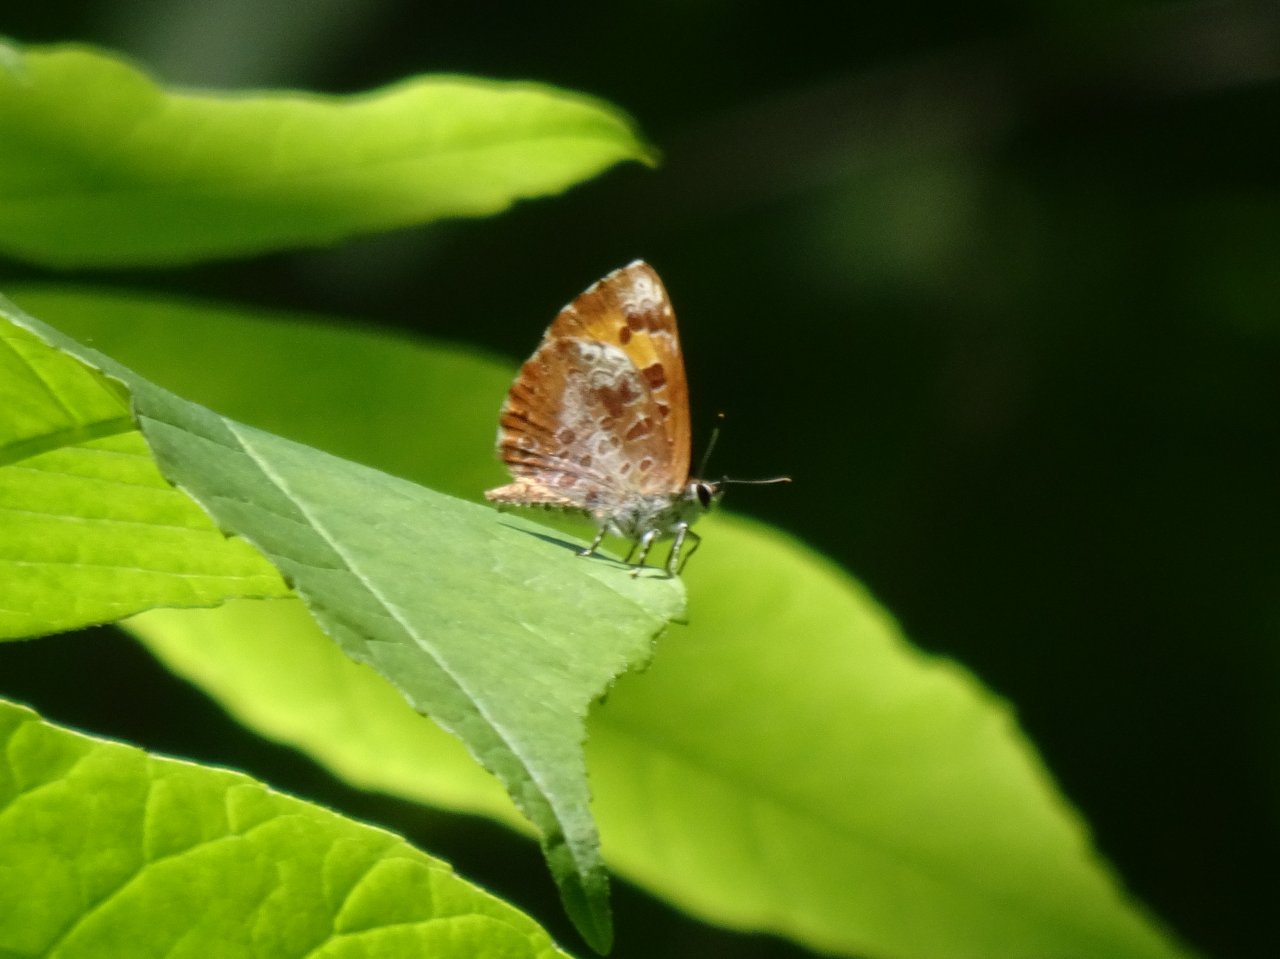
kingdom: Animalia
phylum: Arthropoda
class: Insecta
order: Lepidoptera
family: Lycaenidae
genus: Feniseca
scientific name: Feniseca tarquinius
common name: Harvester
